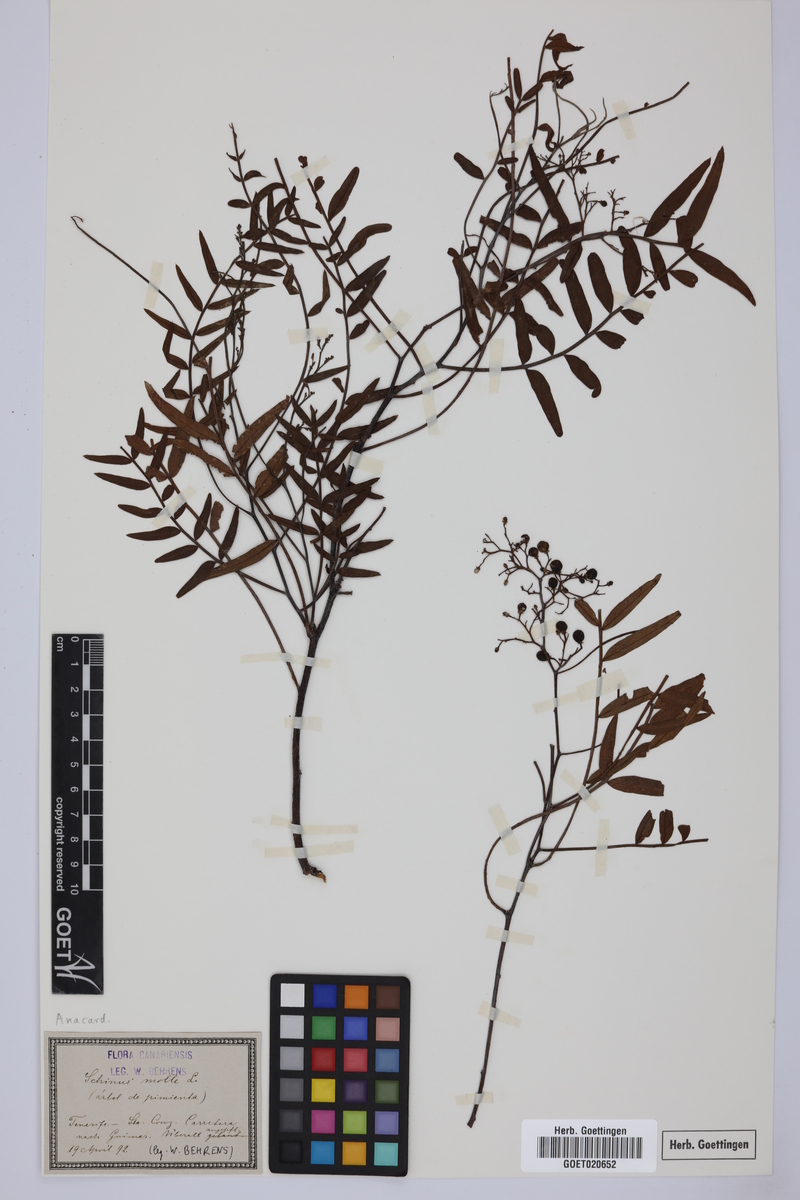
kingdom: Plantae
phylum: Tracheophyta
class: Magnoliopsida
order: Sapindales
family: Anacardiaceae
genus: Schinus
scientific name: Schinus molle
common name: Peruvian peppertree
